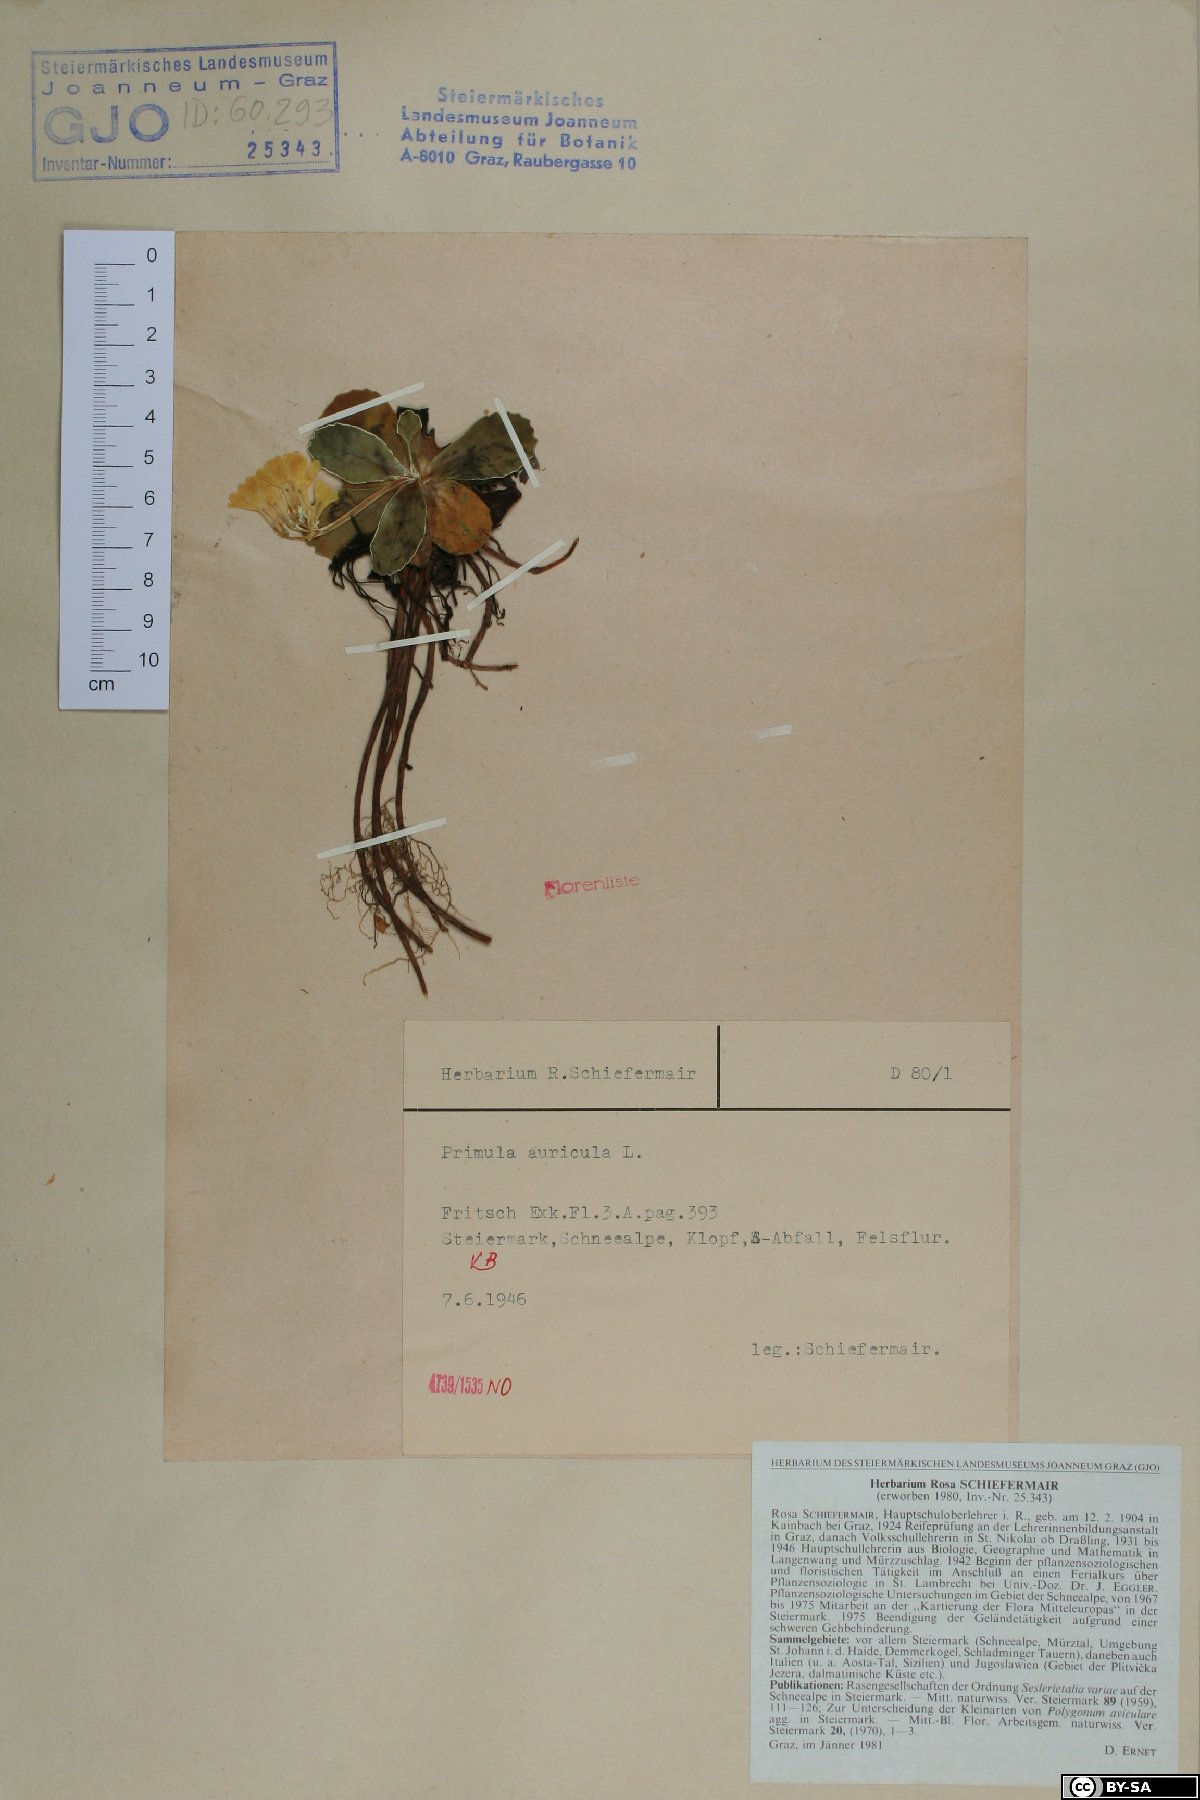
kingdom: Plantae
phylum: Tracheophyta
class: Magnoliopsida
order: Ericales
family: Primulaceae
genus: Primula
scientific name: Primula auricula
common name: Auricula
